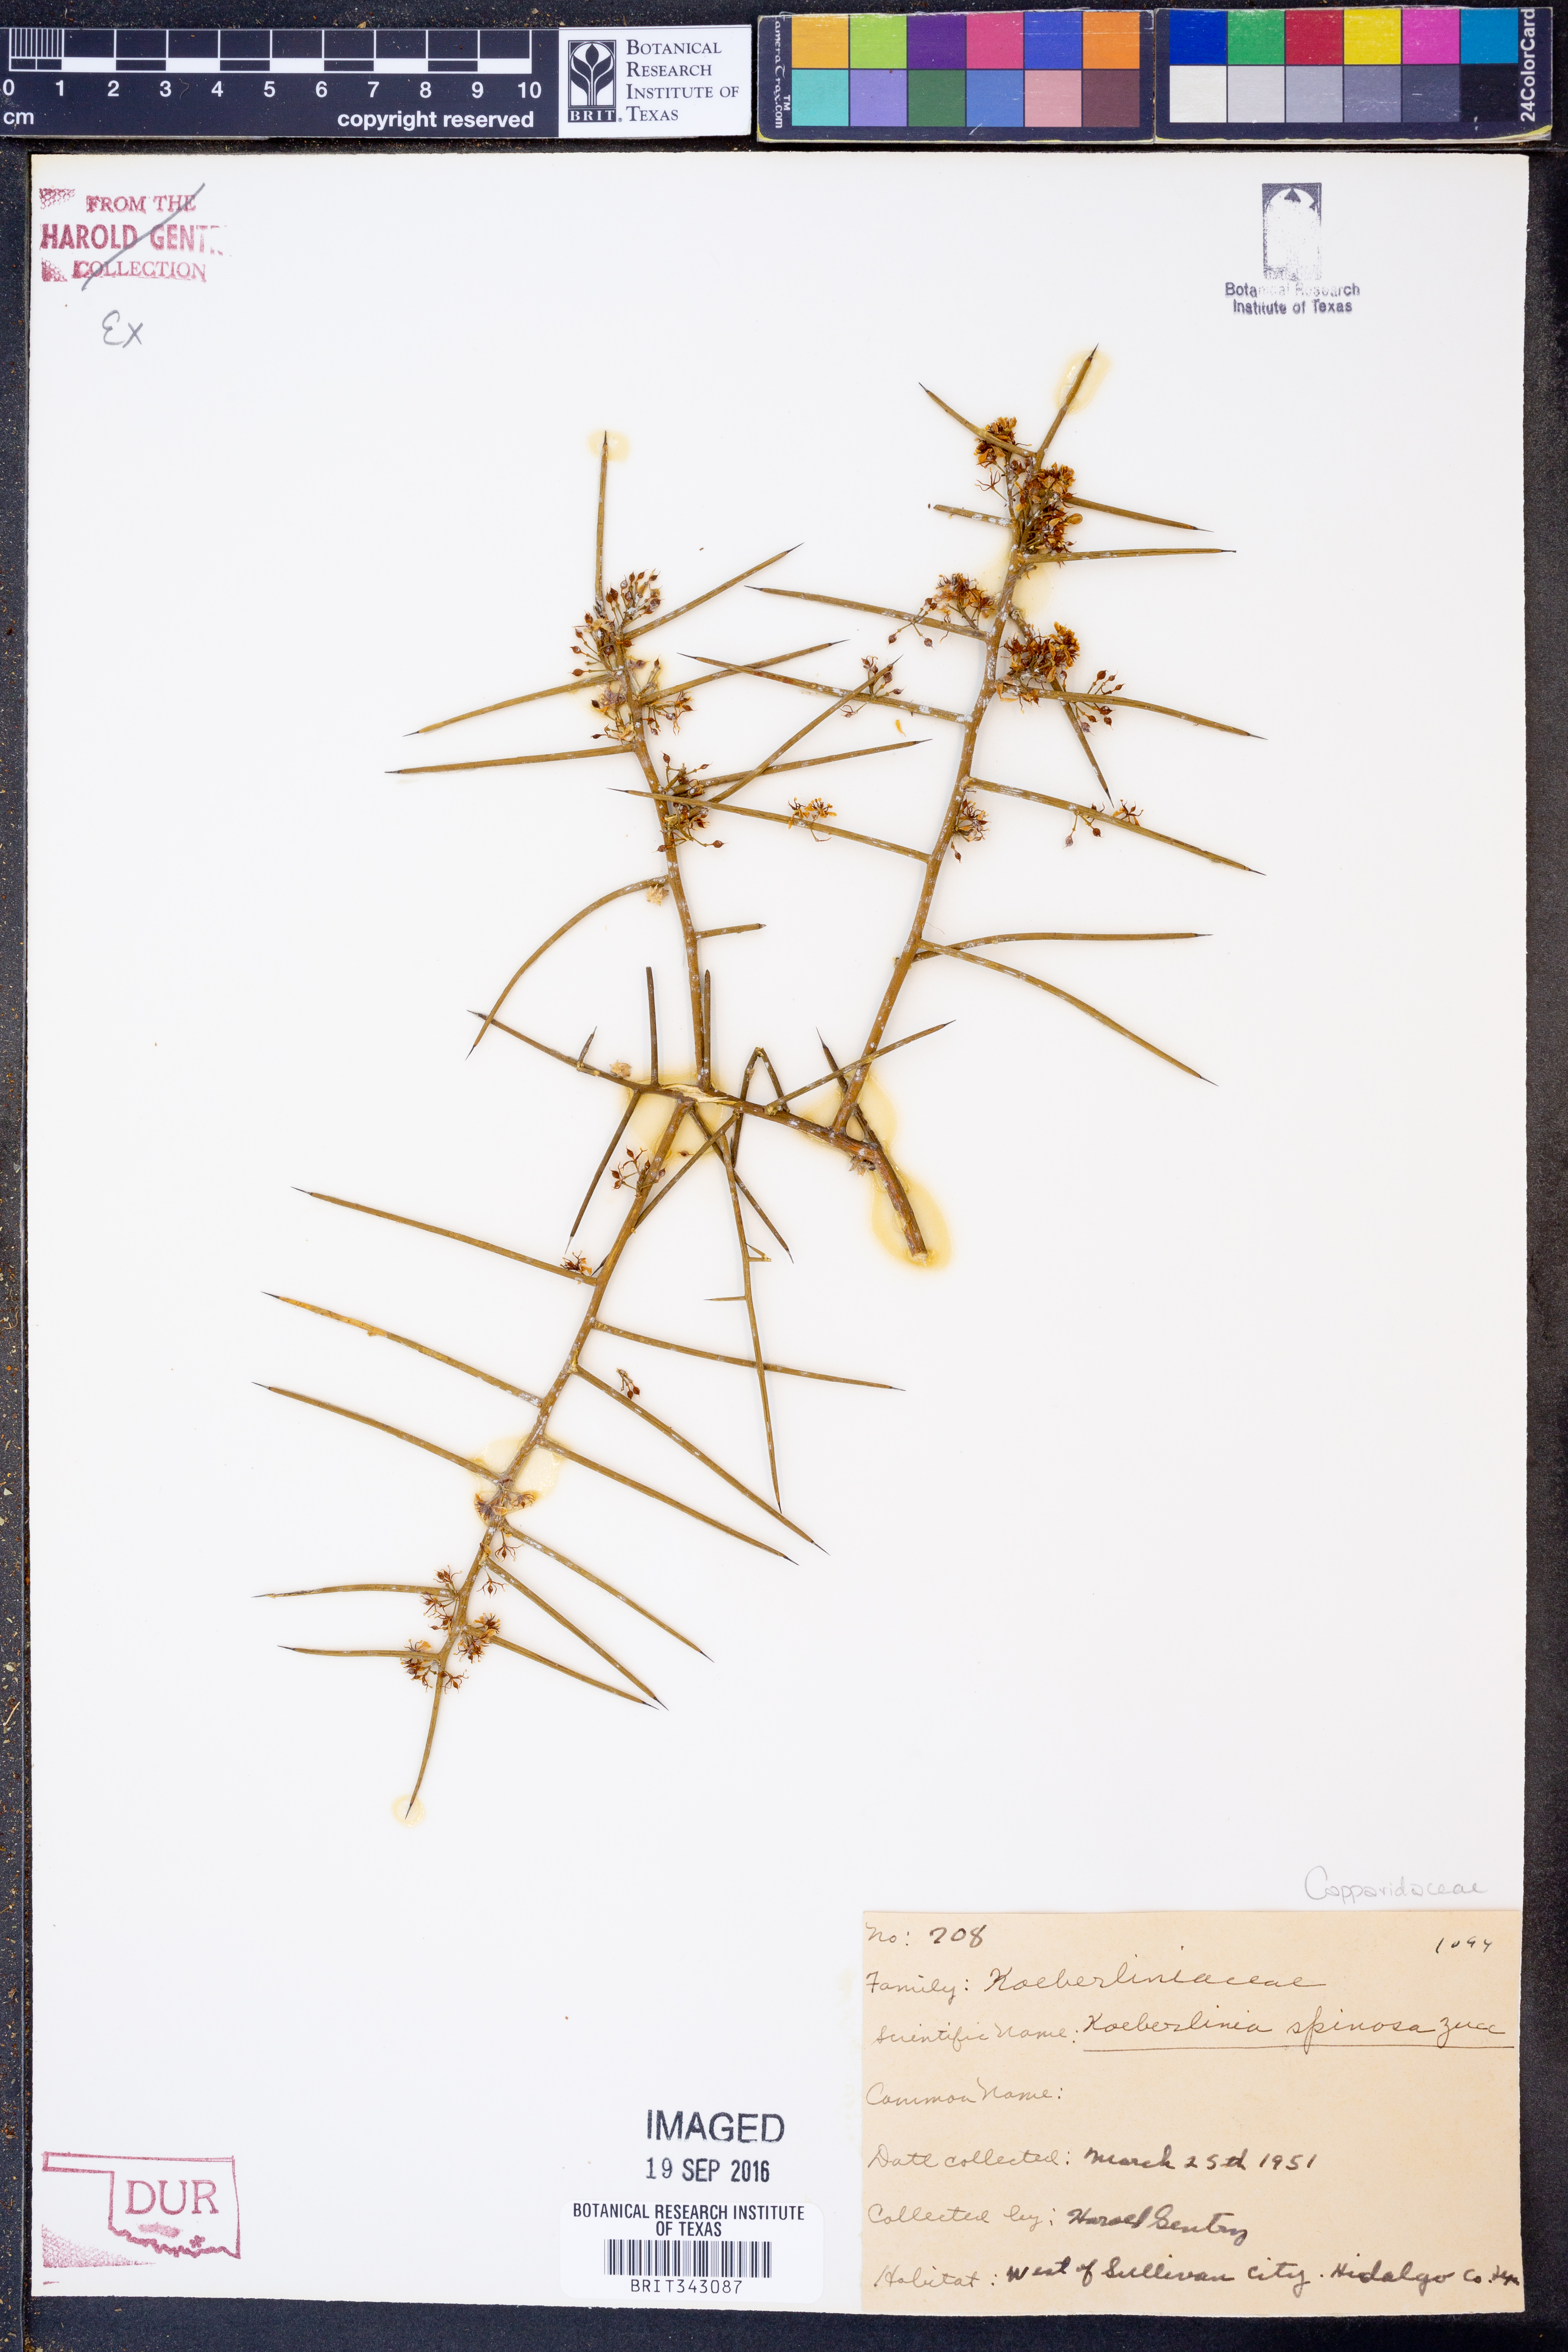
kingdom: Plantae
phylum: Tracheophyta
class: Magnoliopsida
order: Brassicales
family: Koeberliniaceae
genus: Koeberlinia
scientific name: Koeberlinia spinosa
